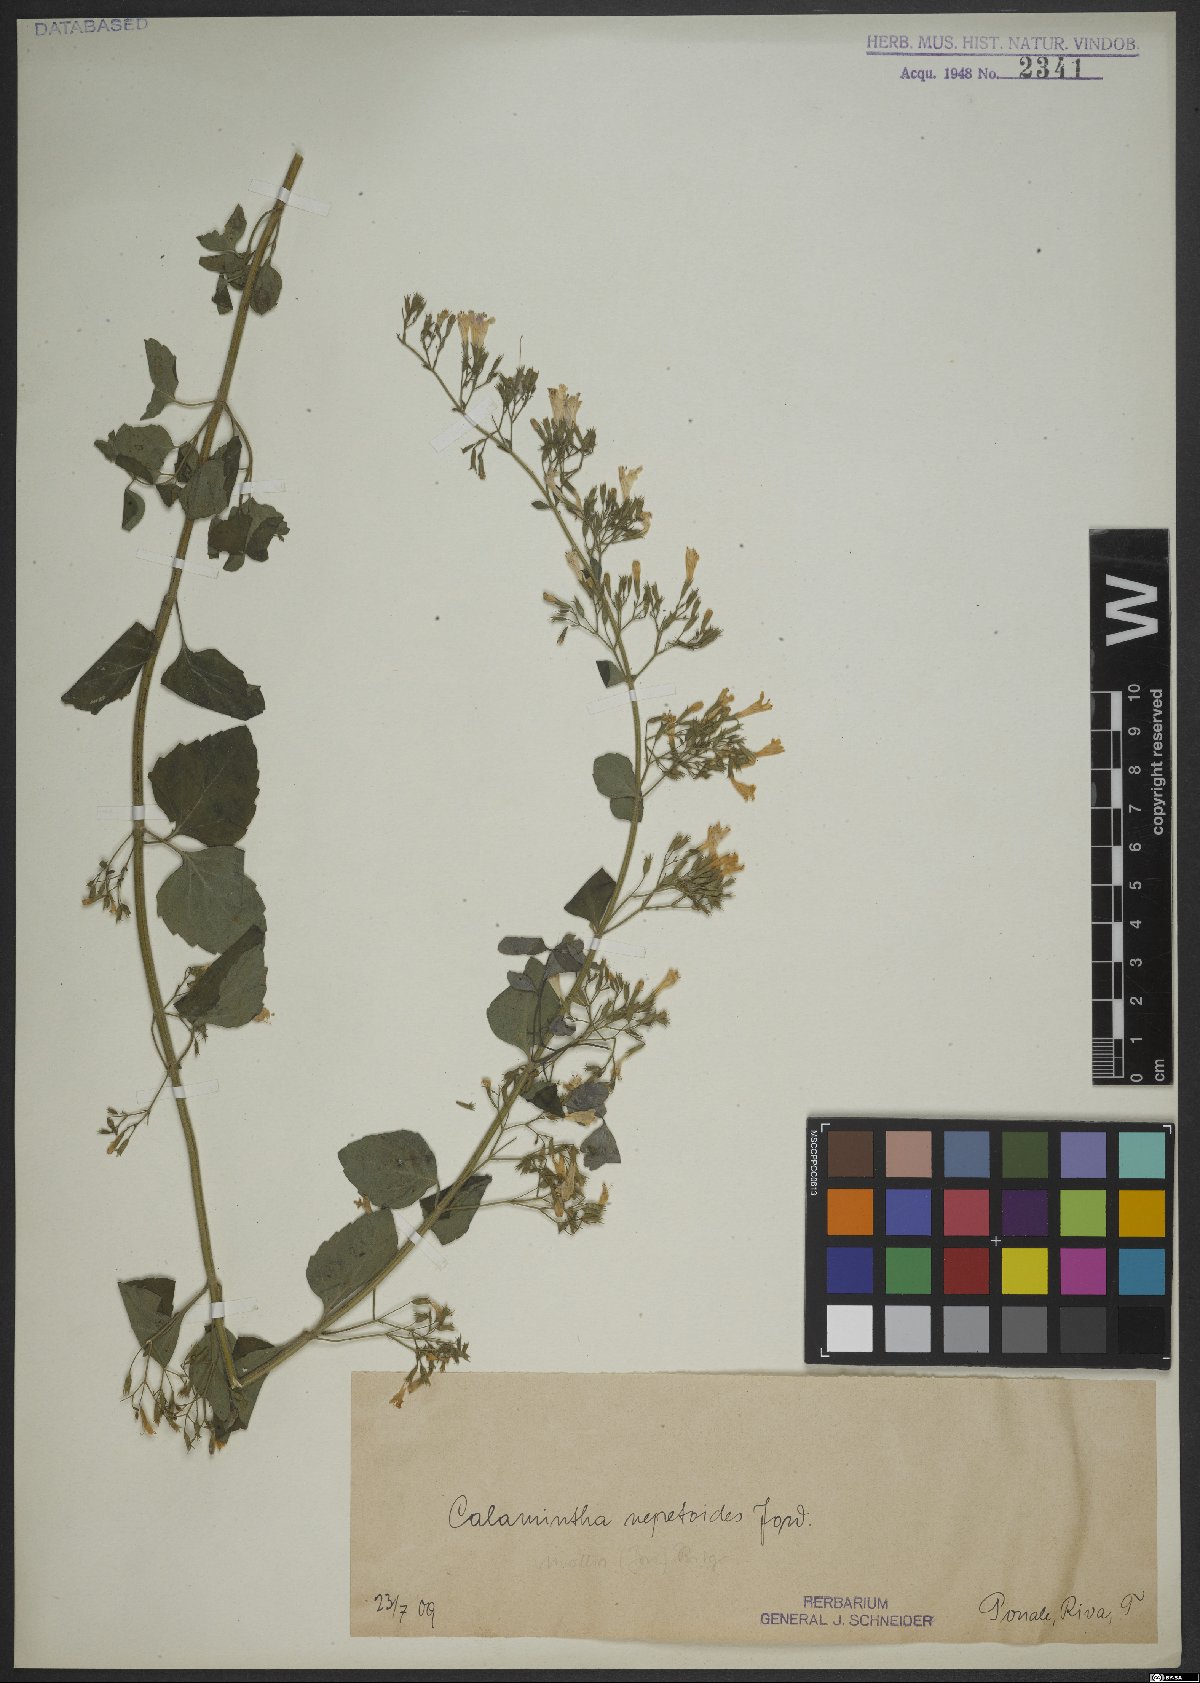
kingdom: Plantae
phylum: Tracheophyta
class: Magnoliopsida
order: Lamiales
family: Lamiaceae
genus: Clinopodium
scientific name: Clinopodium nepeta
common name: Lesser calamint
